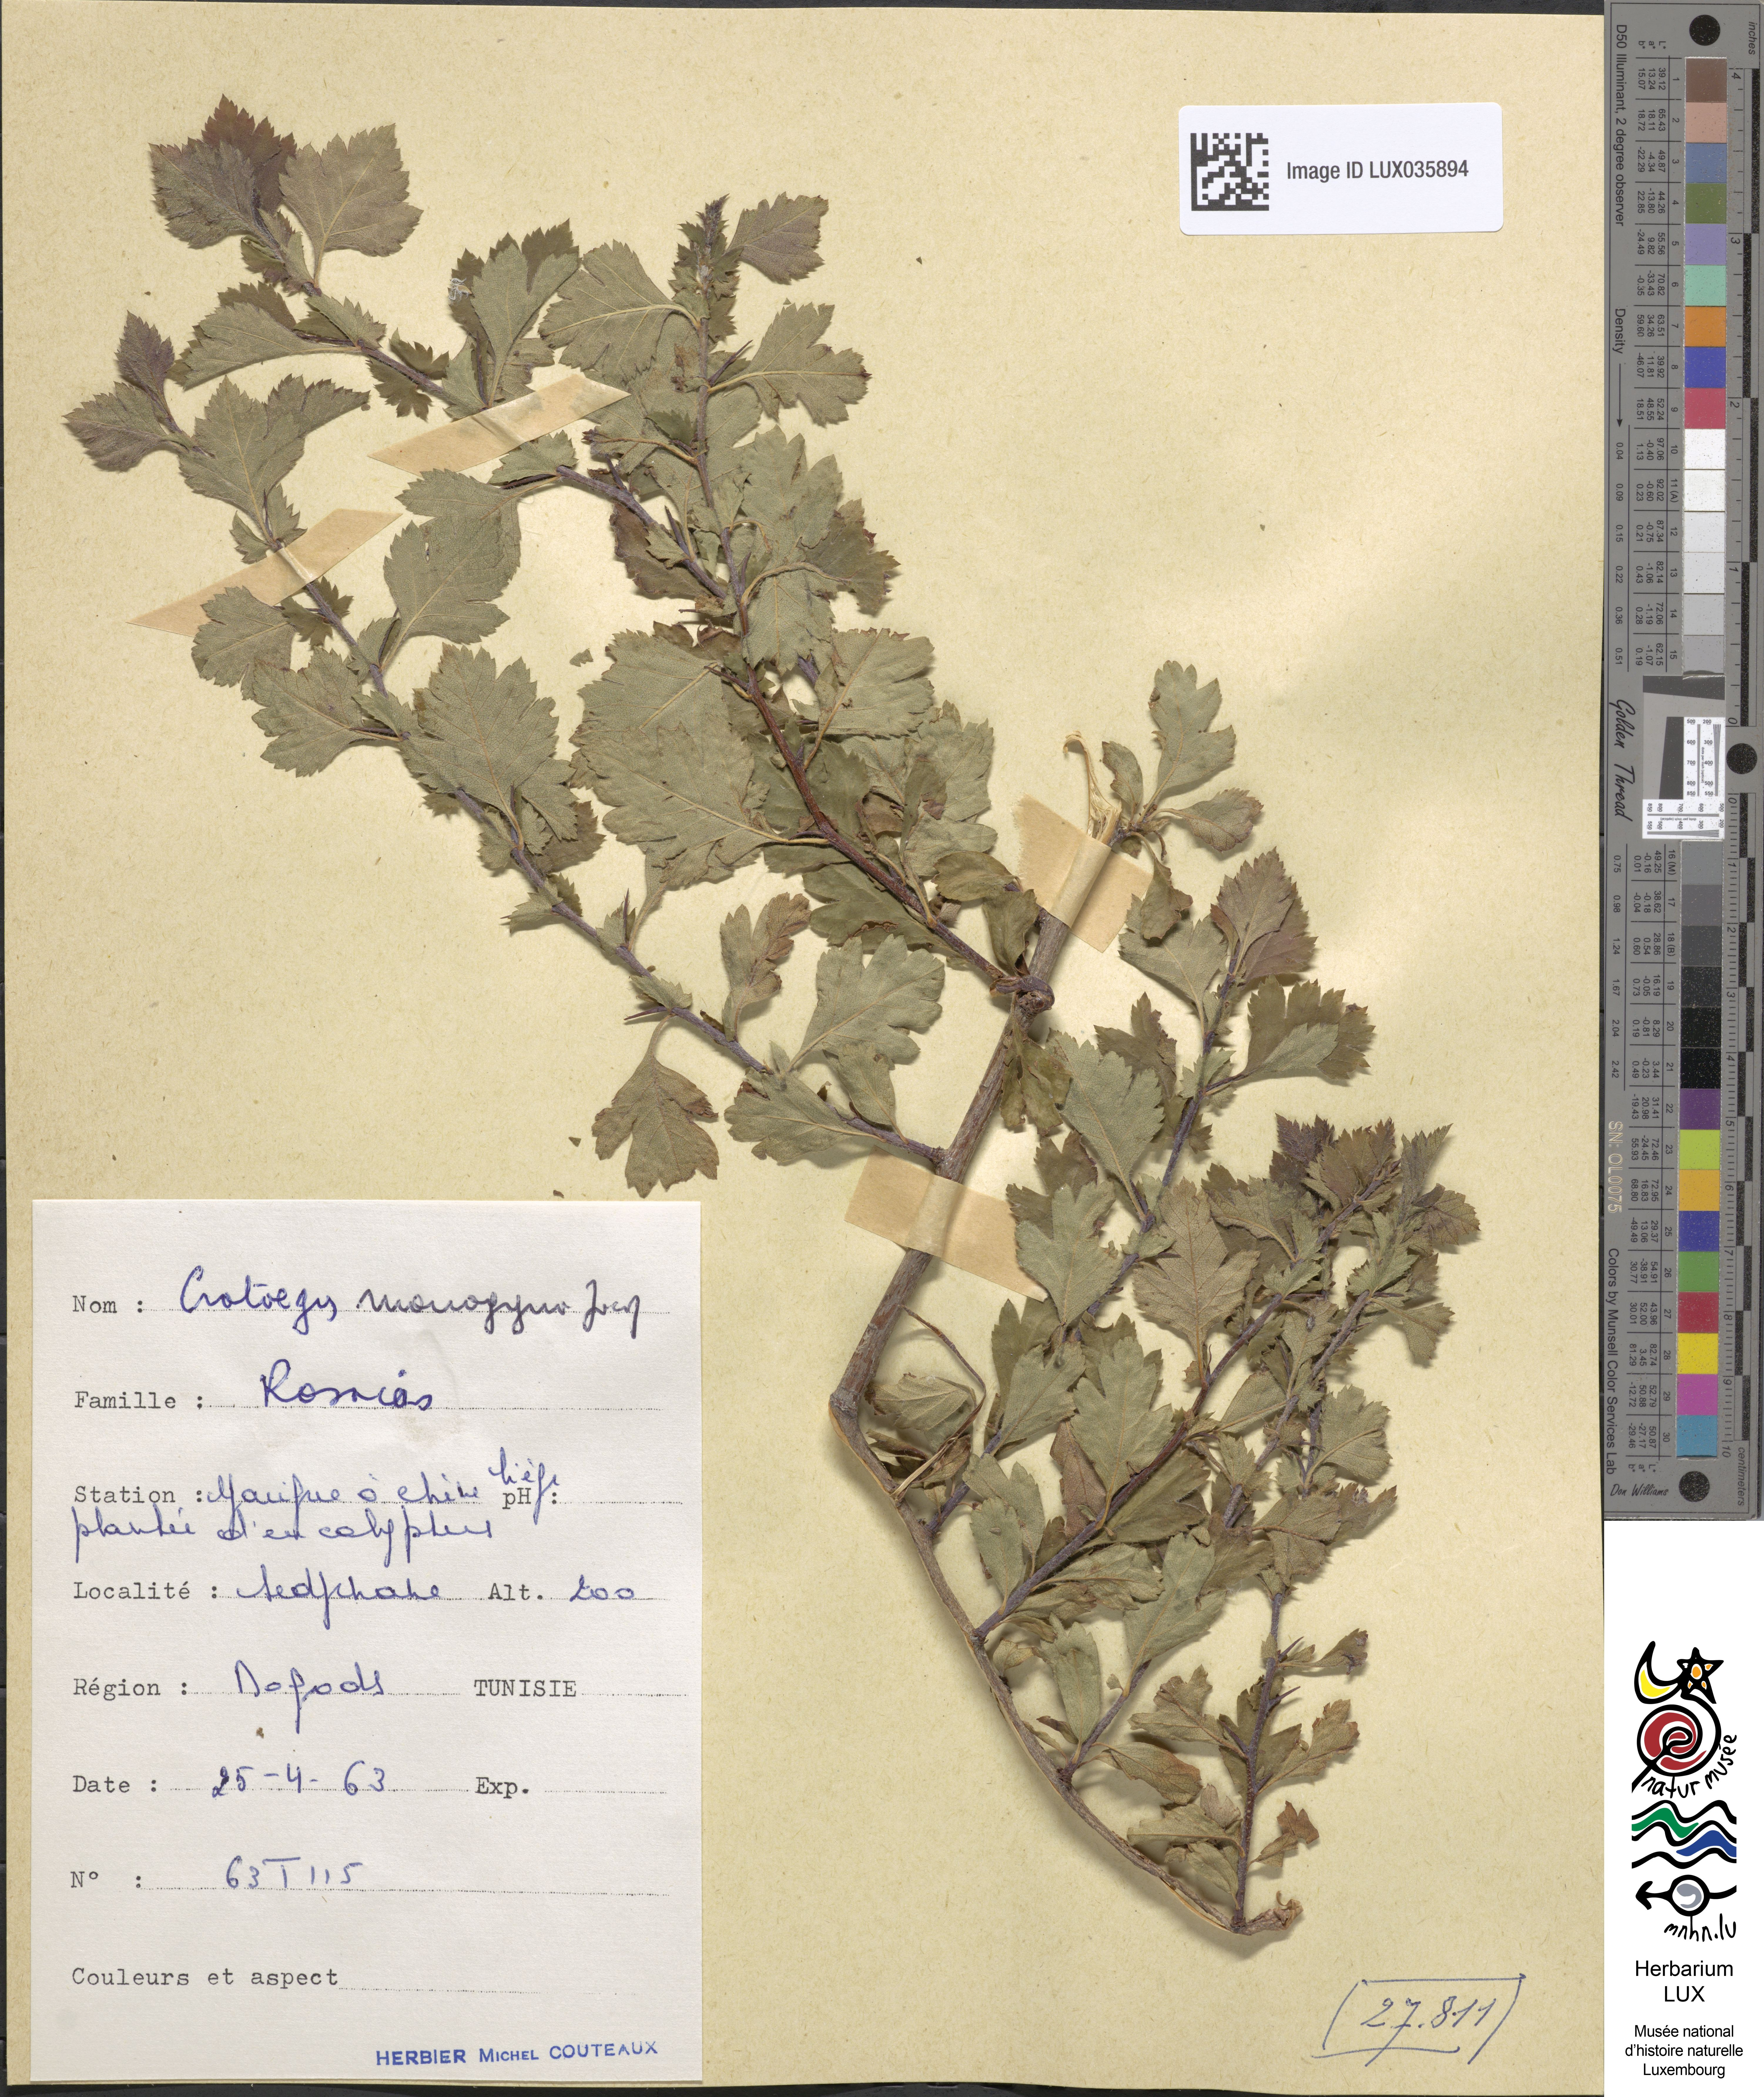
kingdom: Plantae
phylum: Tracheophyta
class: Magnoliopsida
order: Rosales
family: Rosaceae
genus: Crataegus
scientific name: Crataegus monogyna
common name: Hawthorn
